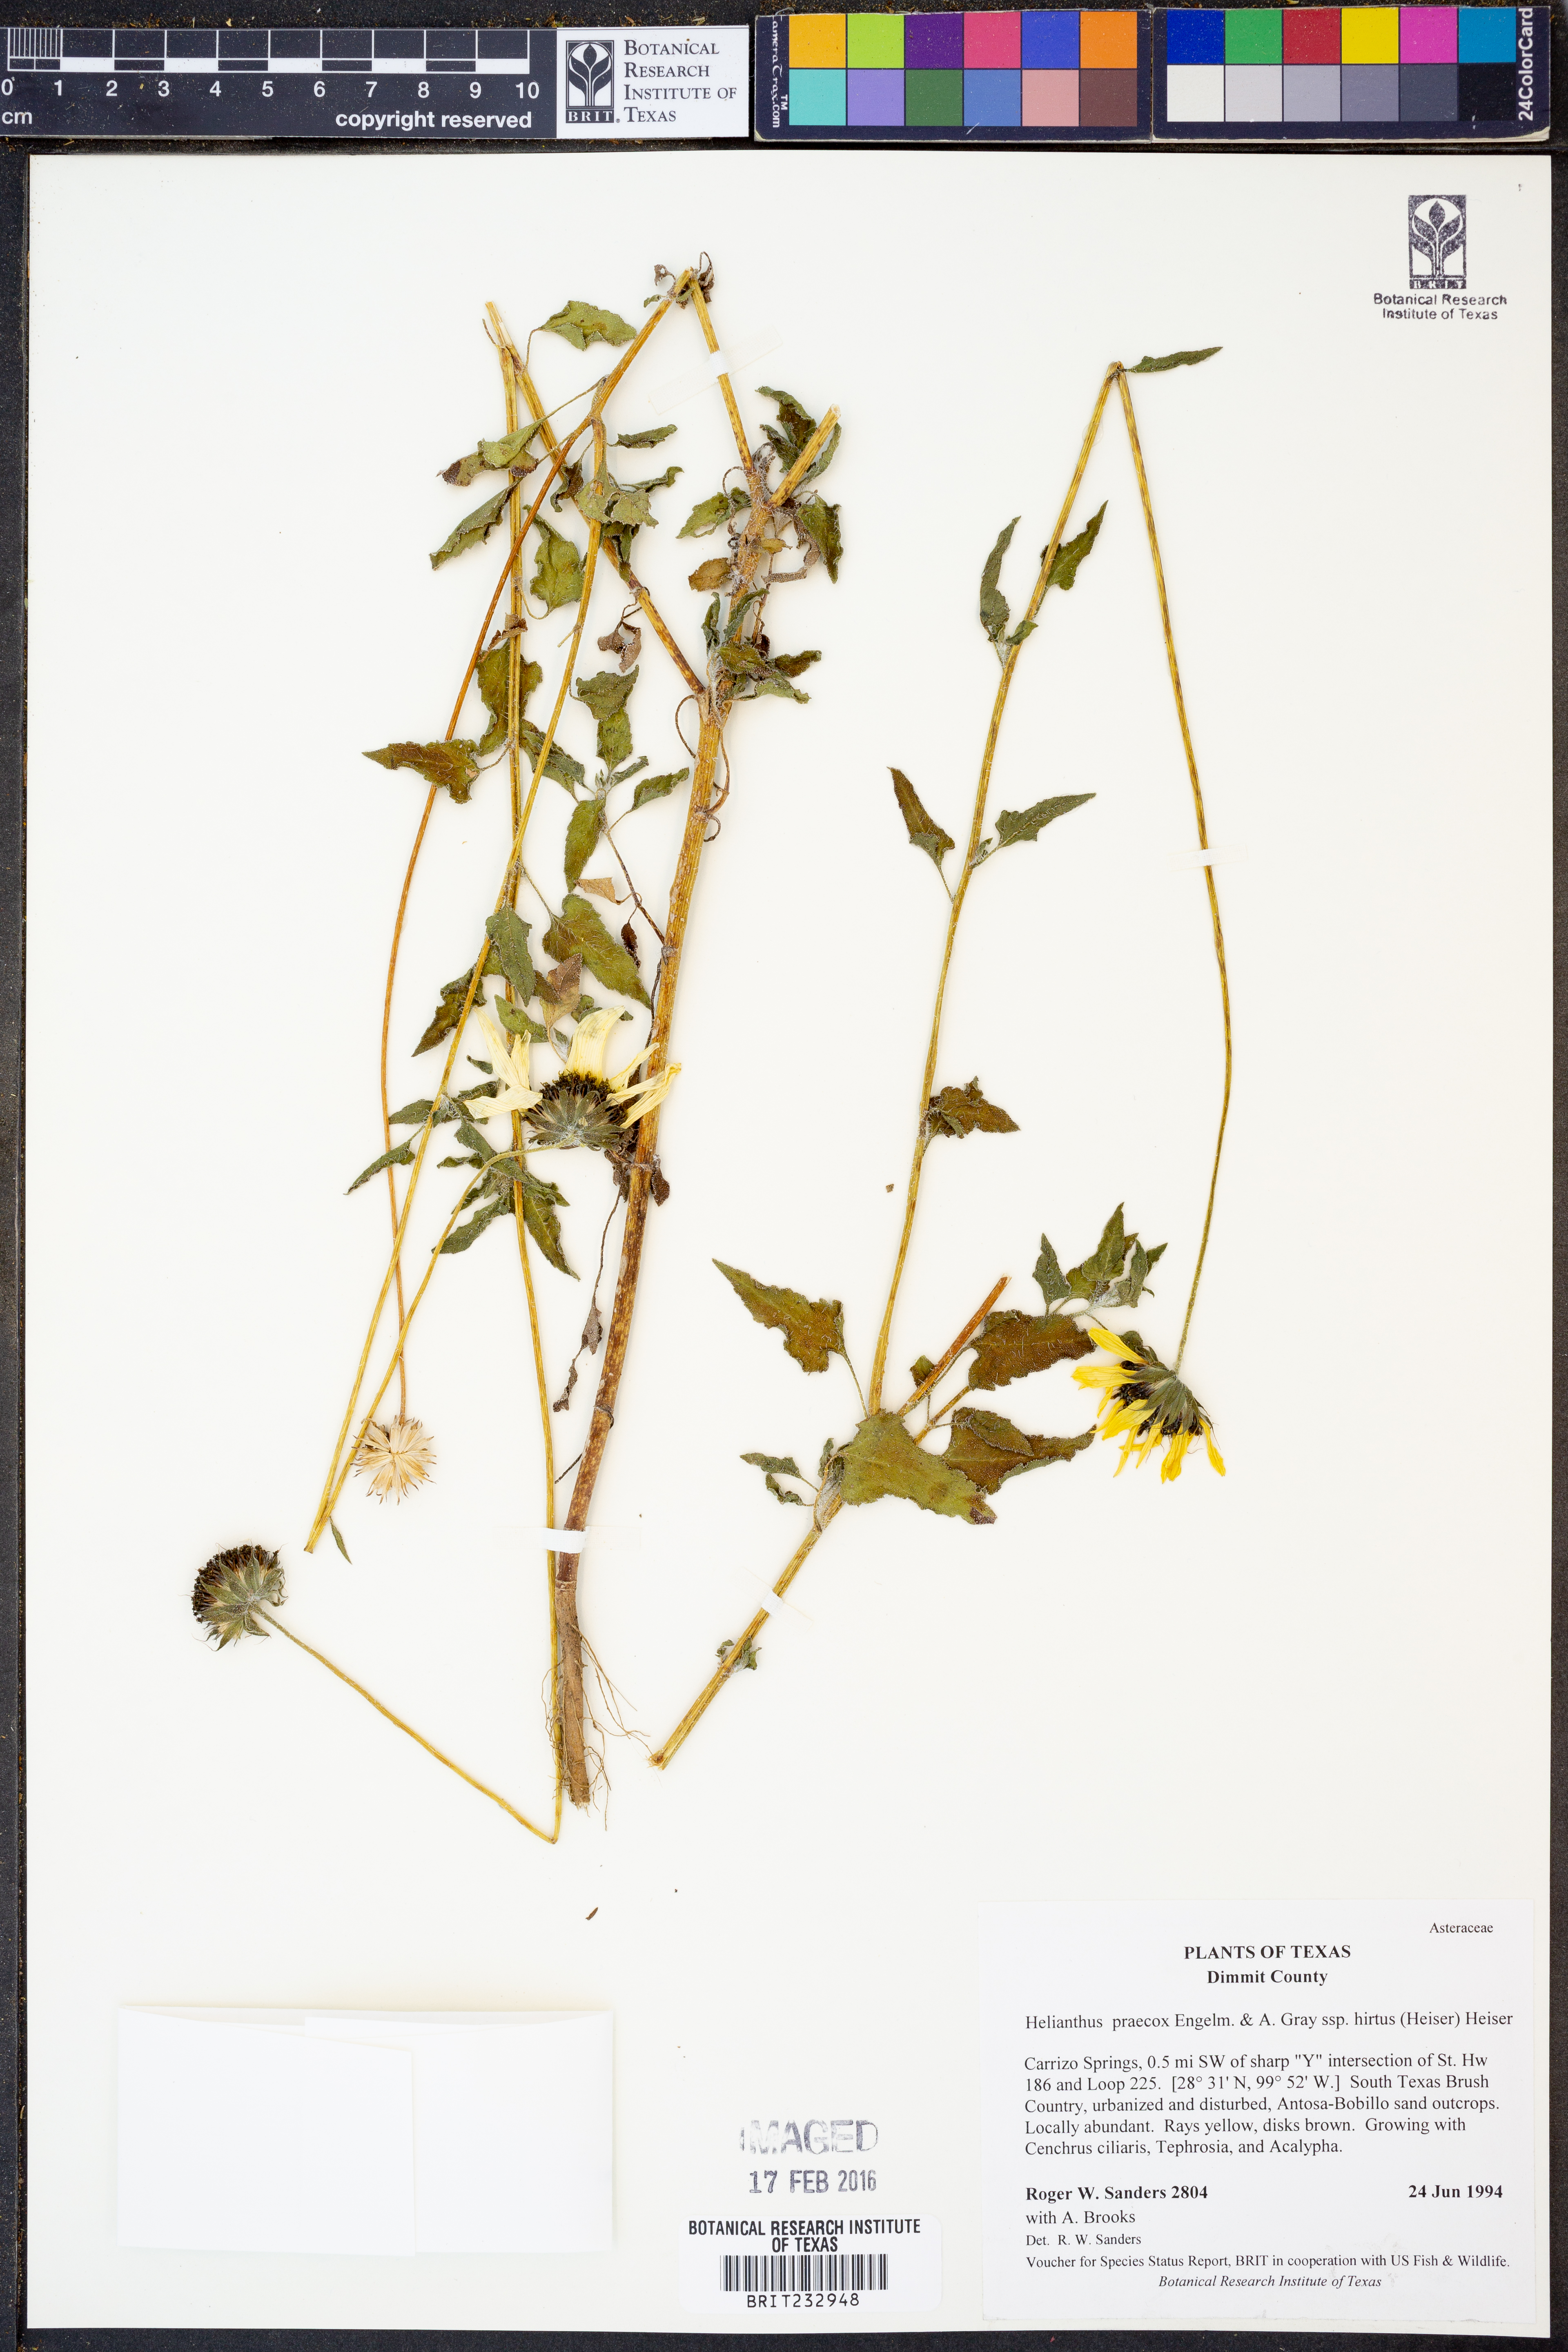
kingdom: Plantae
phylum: Tracheophyta
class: Magnoliopsida
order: Asterales
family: Asteraceae
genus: Helianthus
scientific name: Helianthus praecox
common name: Texas sunflower
